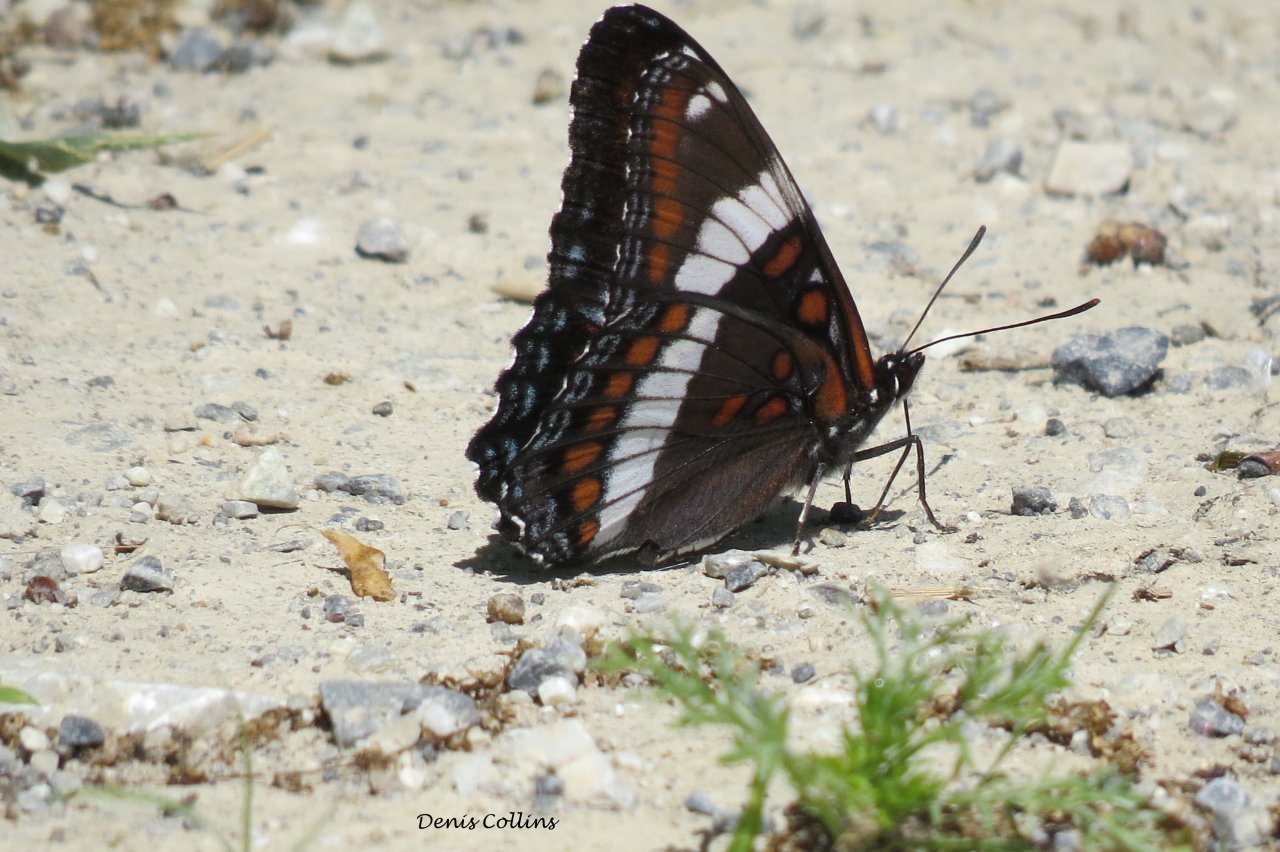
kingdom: Animalia
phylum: Arthropoda
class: Insecta
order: Lepidoptera
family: Nymphalidae
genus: Limenitis
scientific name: Limenitis arthemis
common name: Red-spotted Admiral
